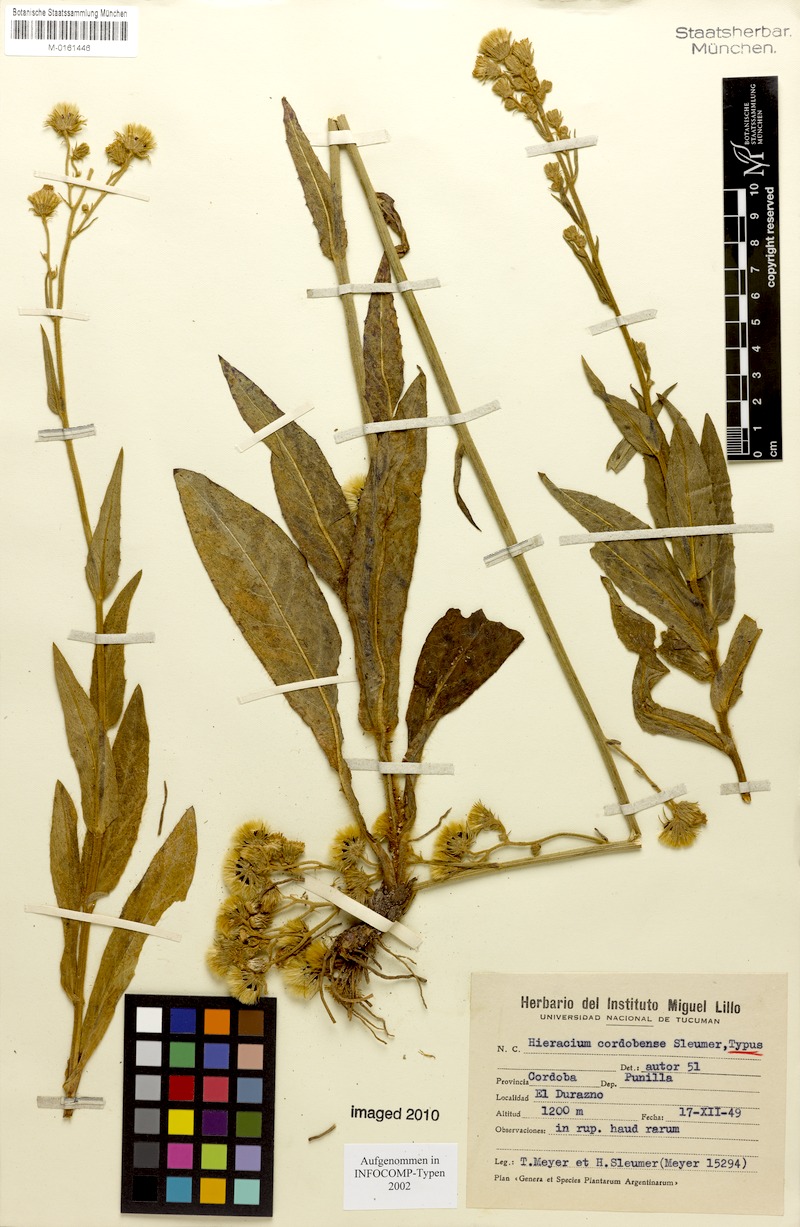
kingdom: Plantae
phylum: Tracheophyta
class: Magnoliopsida
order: Asterales
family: Asteraceae
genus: Hieracium
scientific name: Hieracium cordobense
